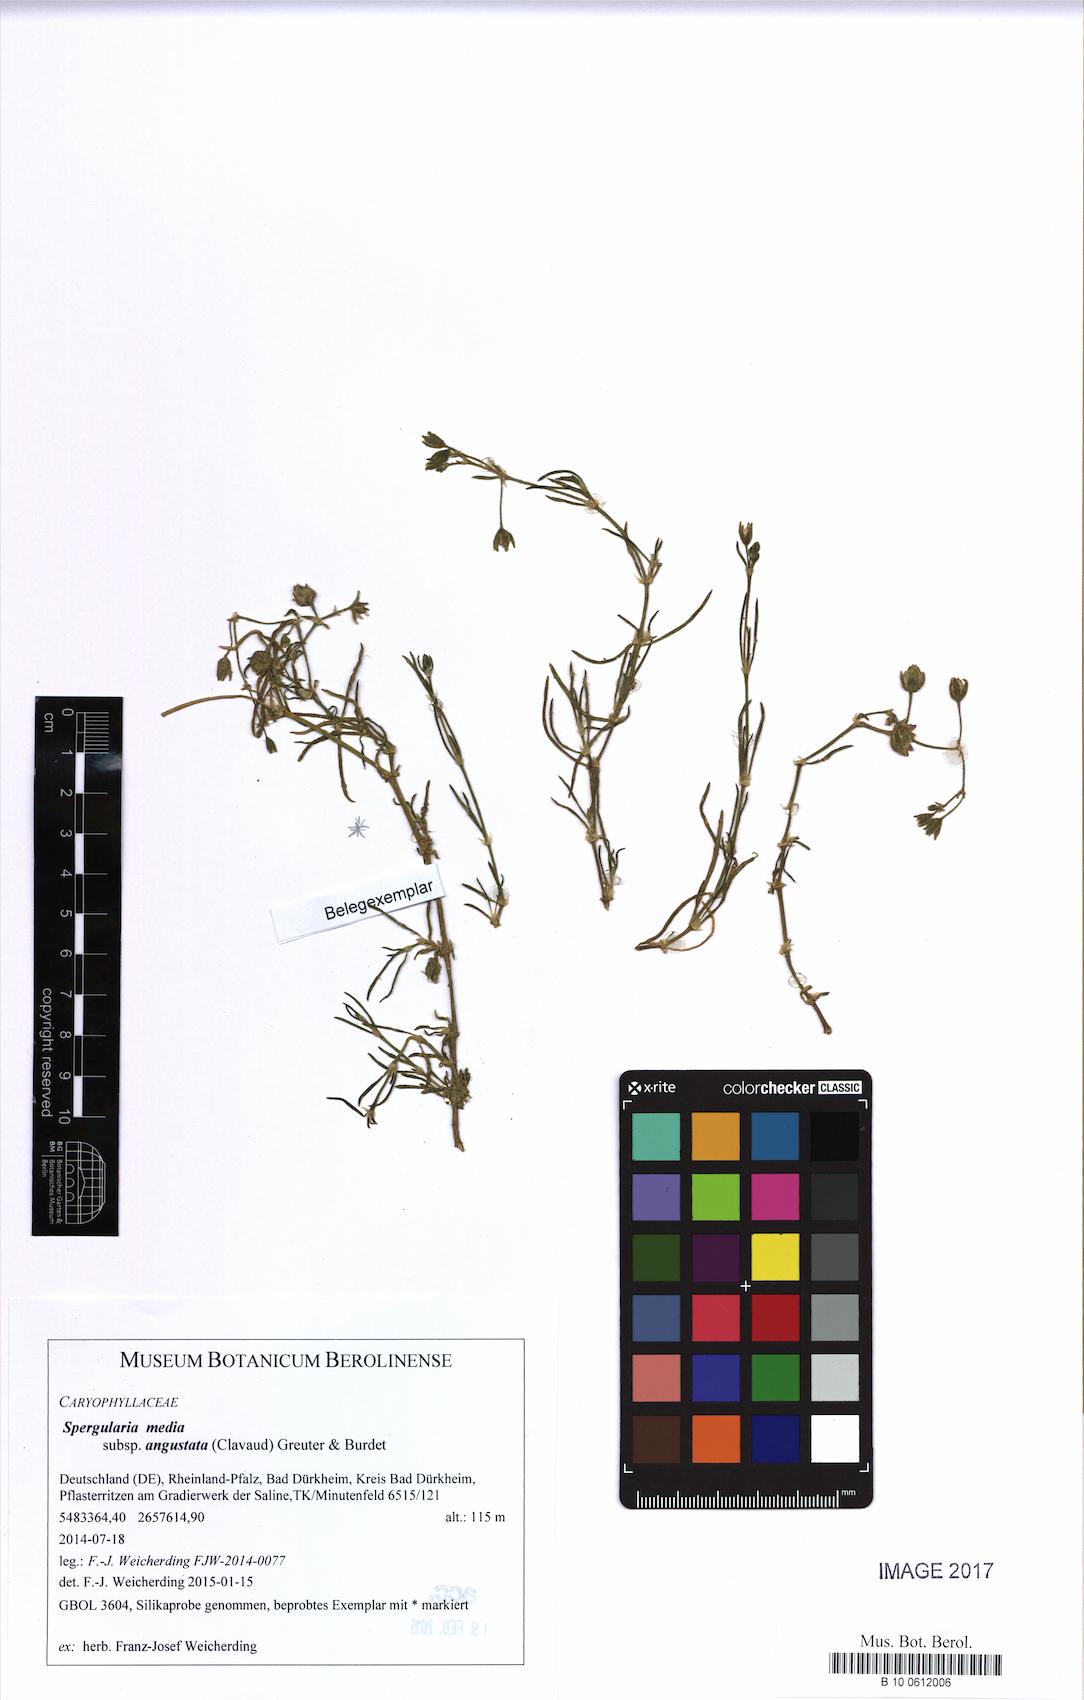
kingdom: Plantae
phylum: Tracheophyta
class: Magnoliopsida
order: Caryophyllales
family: Caryophyllaceae
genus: Spergularia
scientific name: Spergularia media
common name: Greater sea-spurrey
